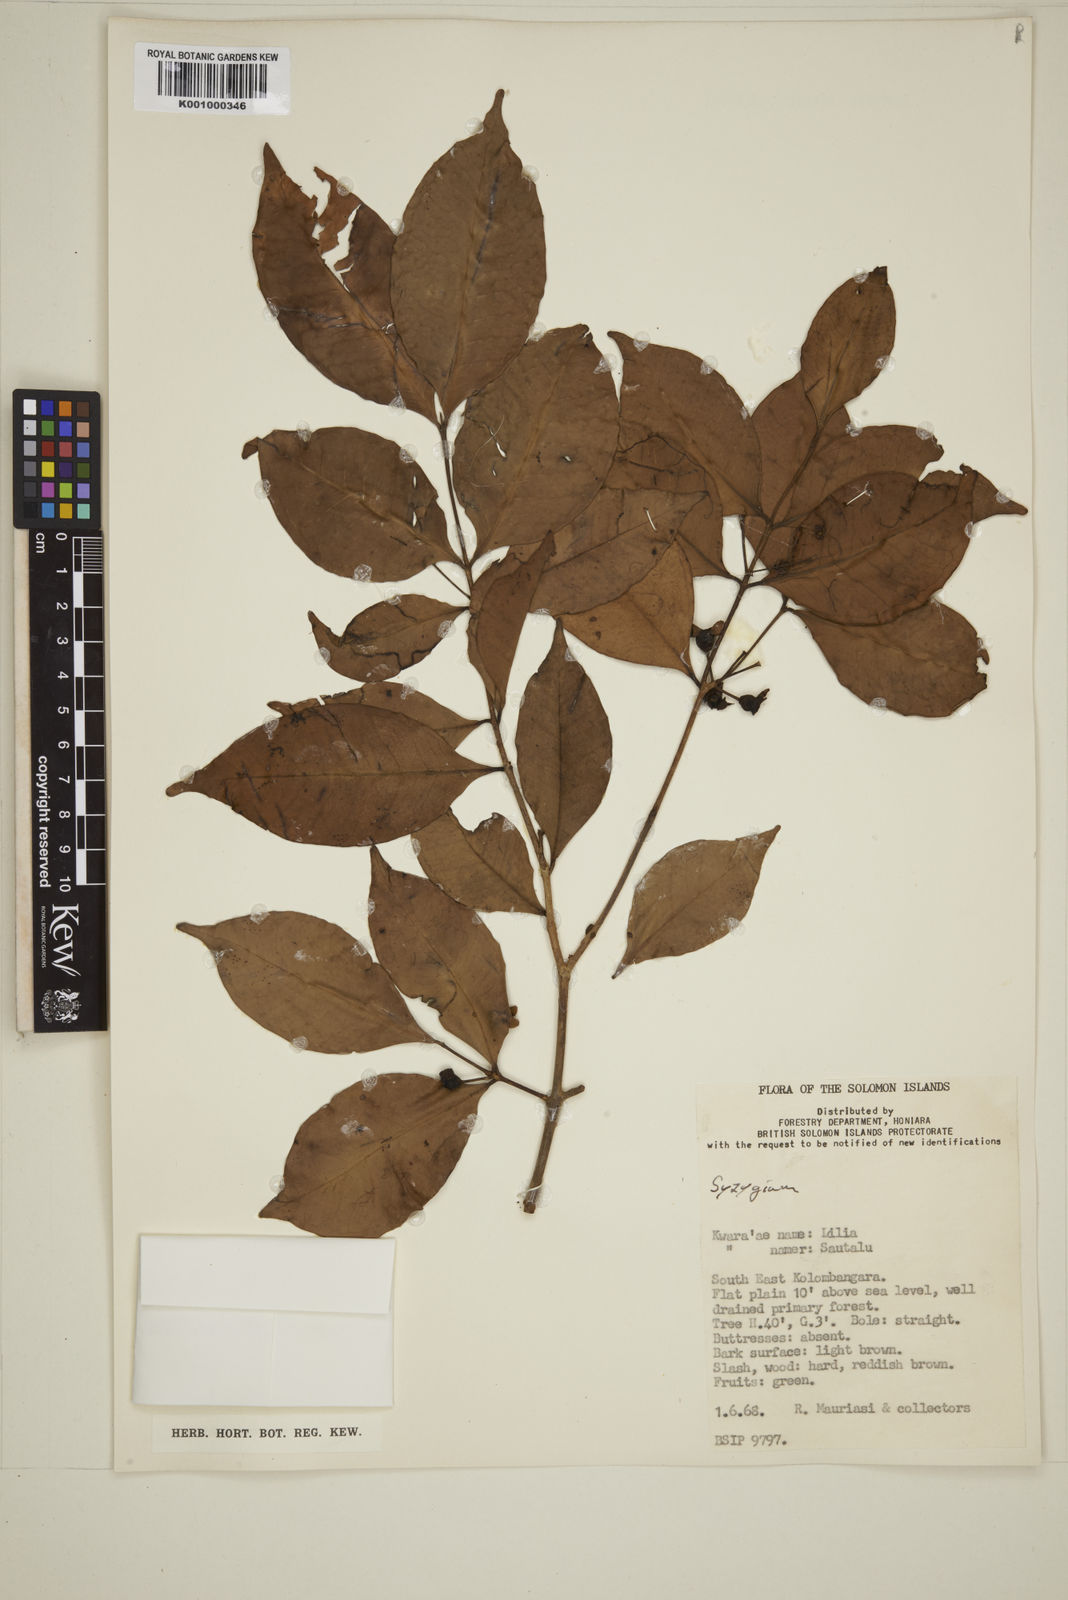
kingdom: Plantae
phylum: Tracheophyta
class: Magnoliopsida
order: Myrtales
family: Myrtaceae
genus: Eugenia
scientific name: Eugenia
